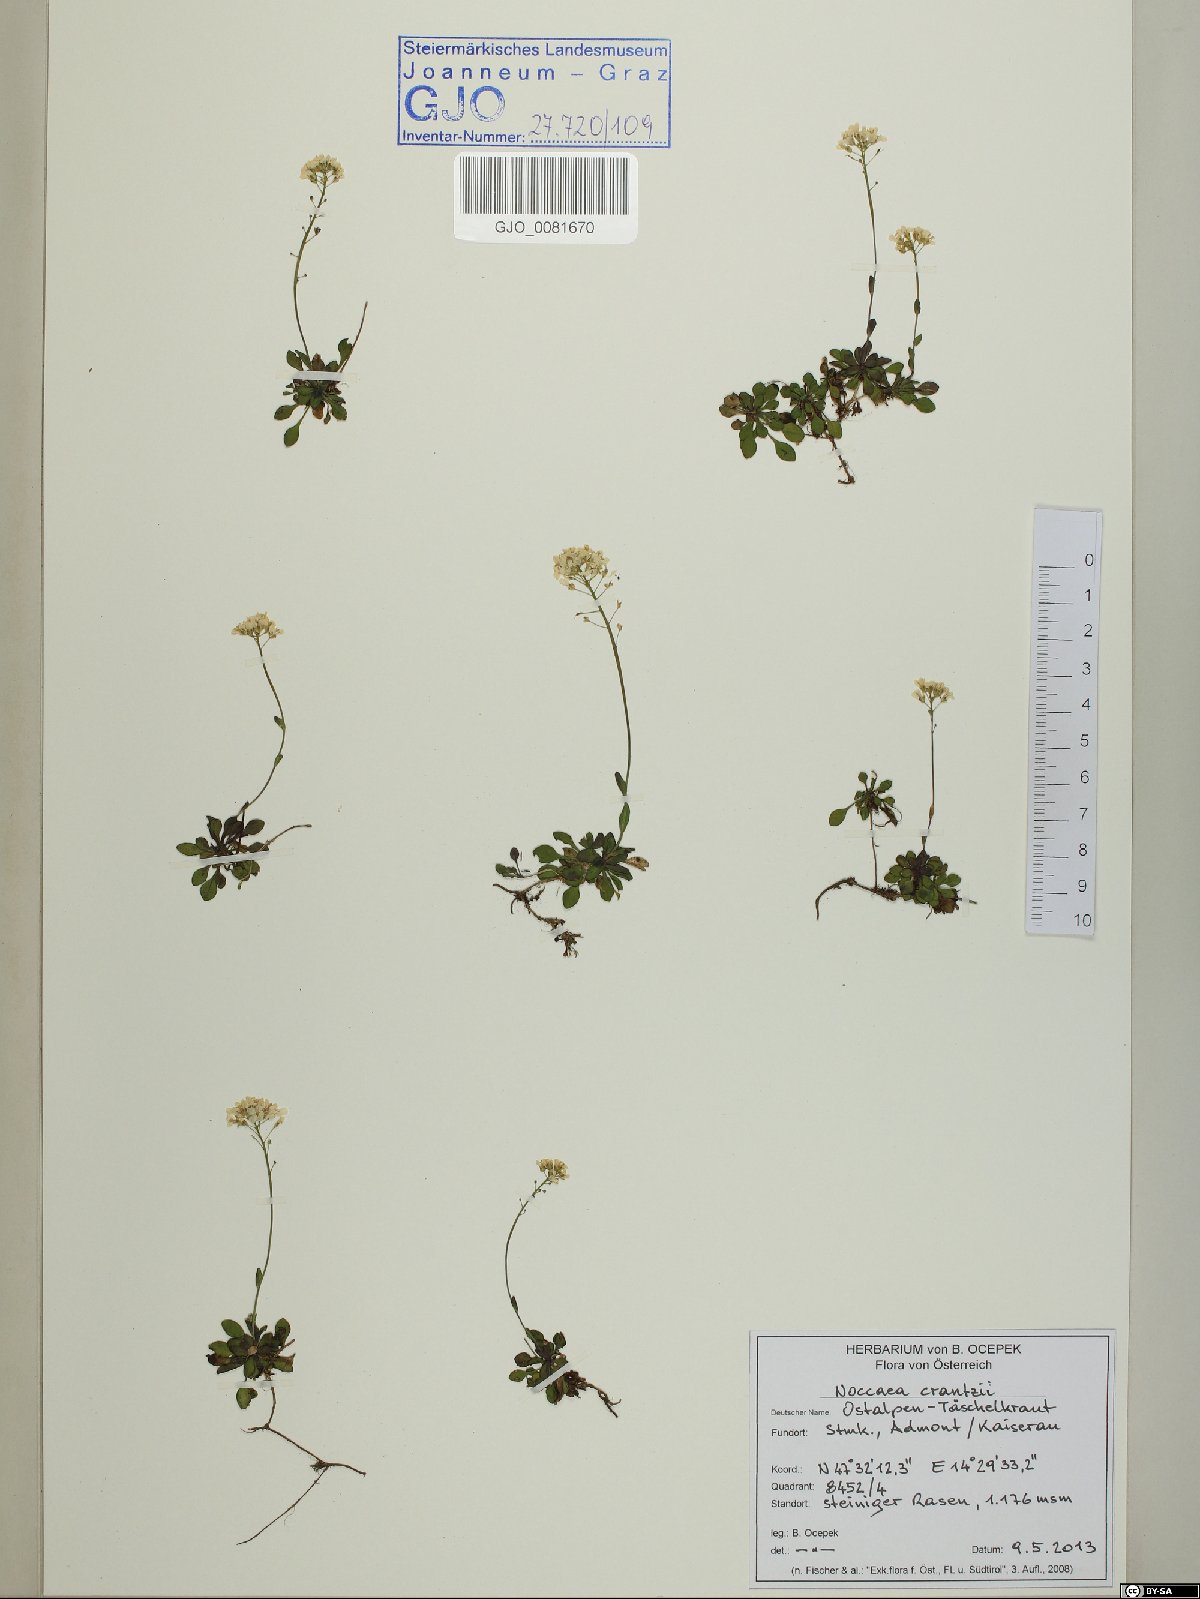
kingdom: Plantae
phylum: Tracheophyta
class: Magnoliopsida
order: Brassicales
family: Brassicaceae
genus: Noccaea
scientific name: Noccaea alpestris
